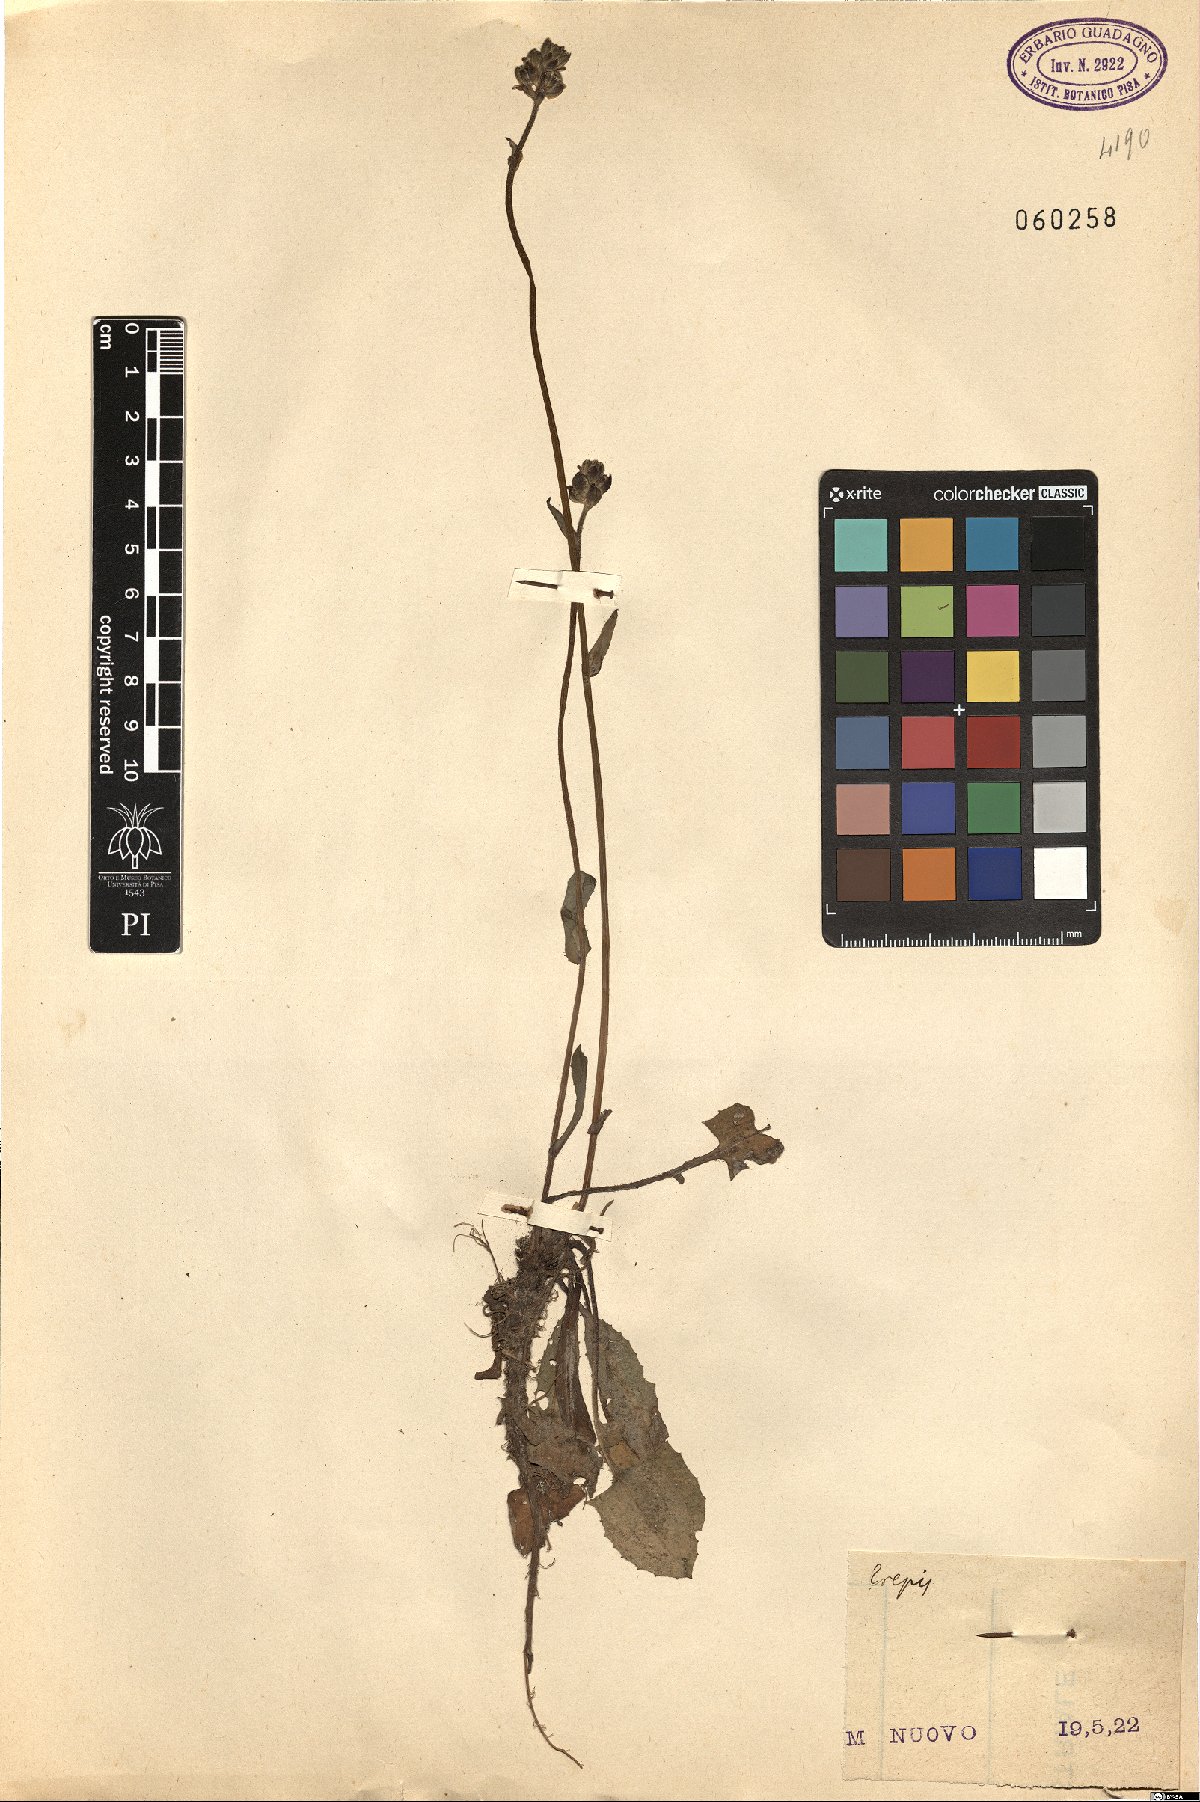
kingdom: Plantae
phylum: Tracheophyta
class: Magnoliopsida
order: Asterales
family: Asteraceae
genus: Crepis
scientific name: Crepis
